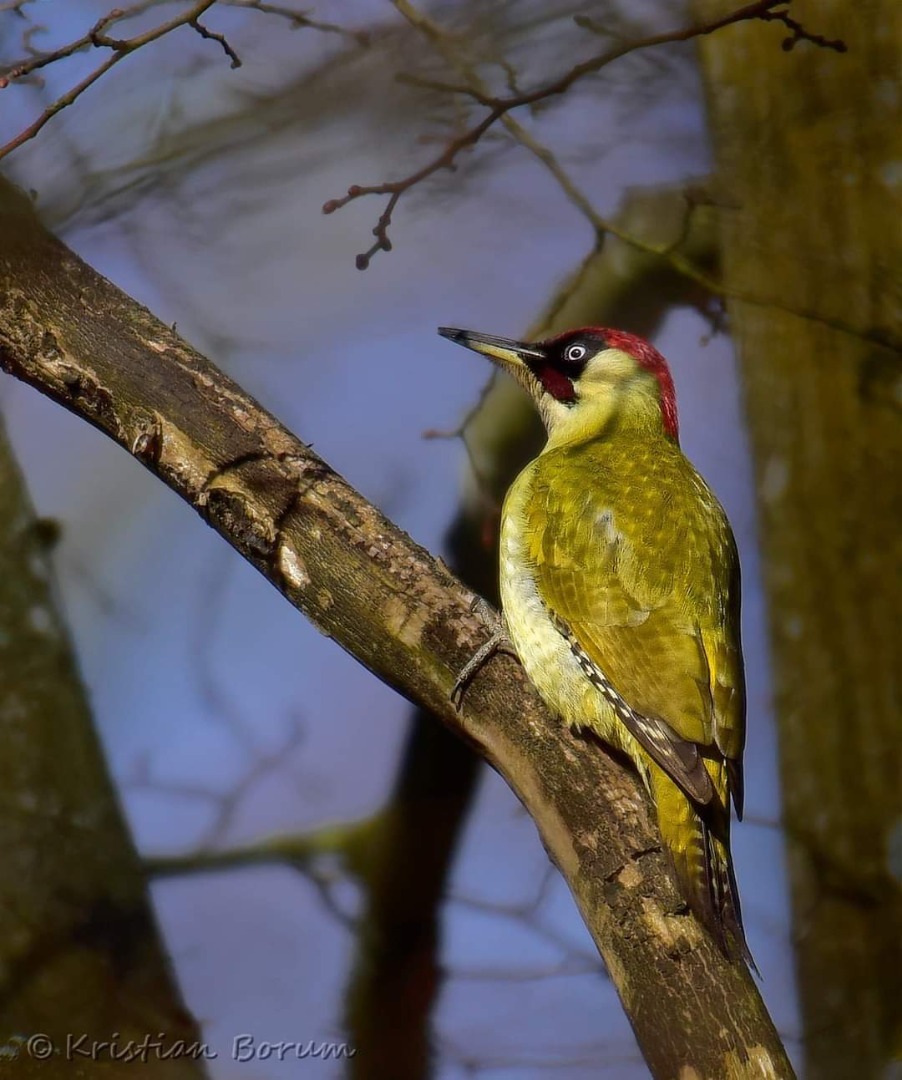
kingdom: Animalia
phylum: Chordata
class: Aves
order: Piciformes
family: Picidae
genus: Picus
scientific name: Picus viridis
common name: Grønspætte
